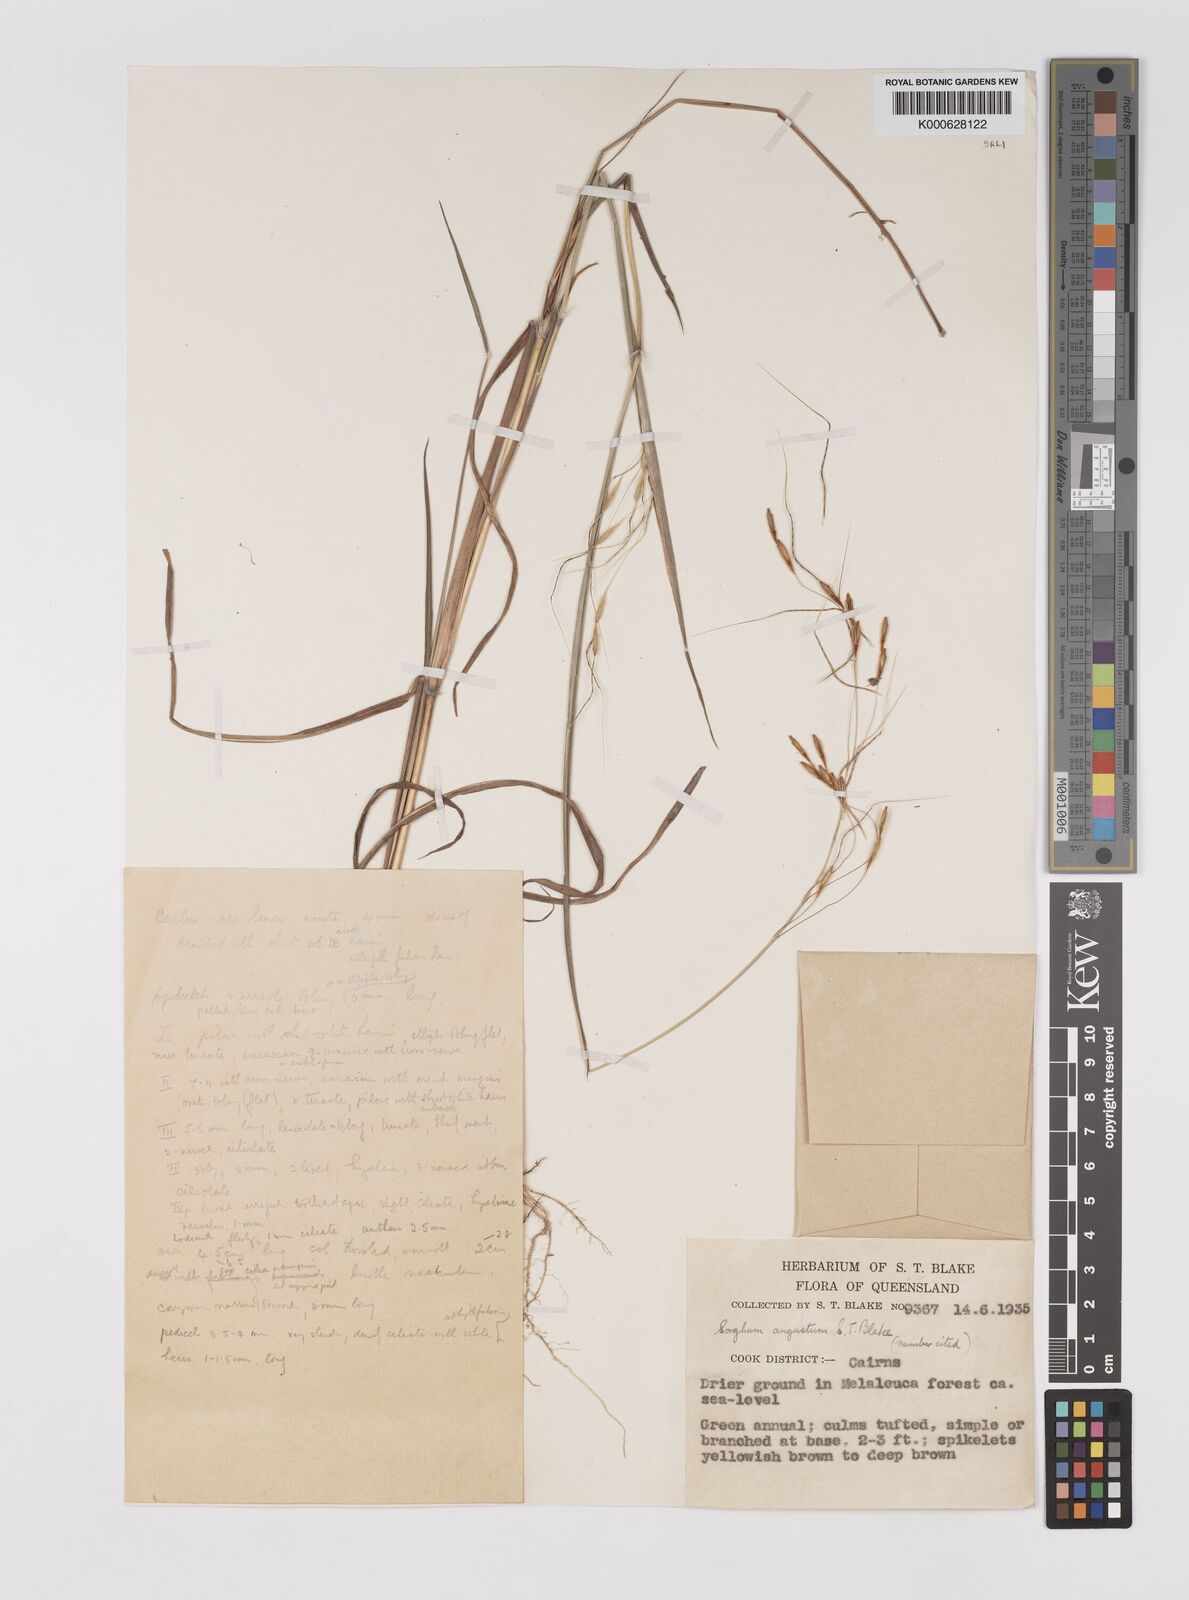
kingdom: Plantae
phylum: Tracheophyta
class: Liliopsida
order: Poales
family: Poaceae
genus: Sarga
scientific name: Sarga angusta
